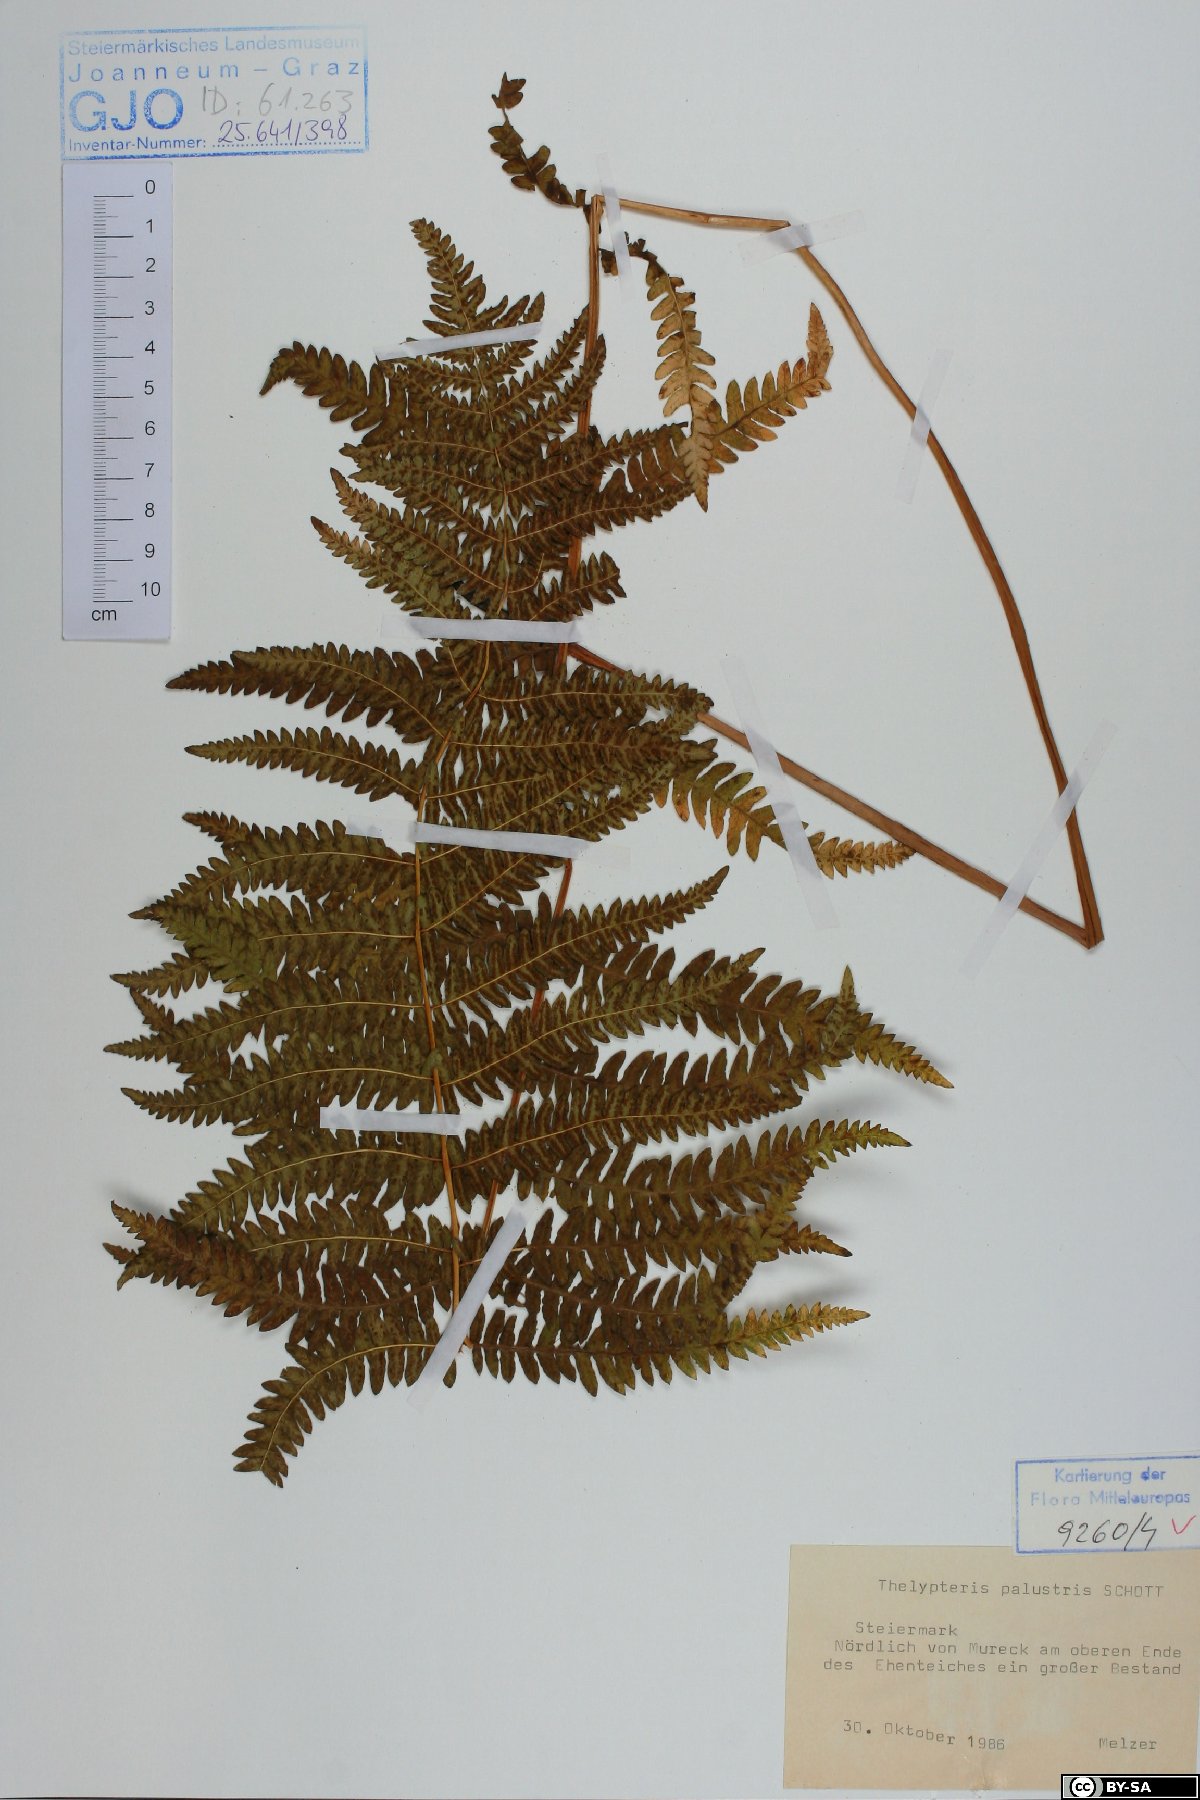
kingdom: Plantae
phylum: Tracheophyta
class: Polypodiopsida
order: Polypodiales
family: Thelypteridaceae
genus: Thelypteris
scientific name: Thelypteris palustris
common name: Marsh fern
